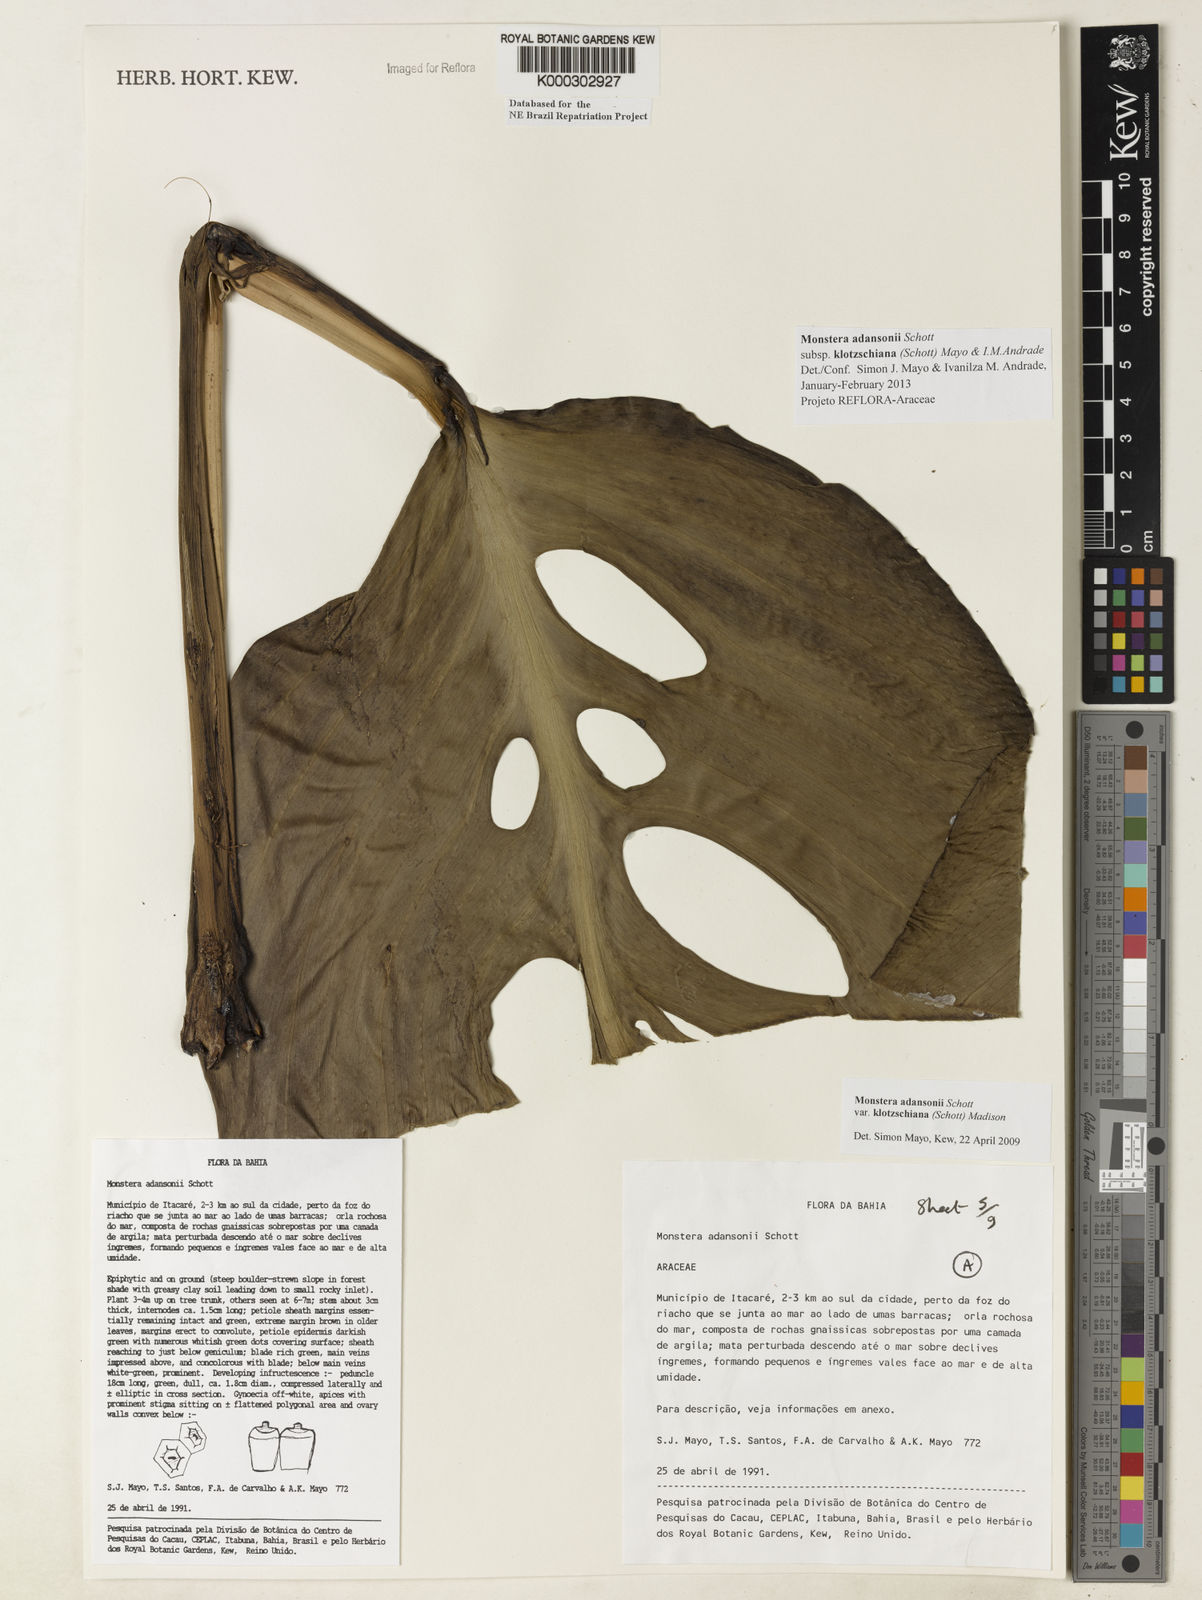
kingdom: Plantae
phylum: Tracheophyta
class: Liliopsida
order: Alismatales
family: Araceae
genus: Monstera
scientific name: Monstera adansonii
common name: Tarovine
